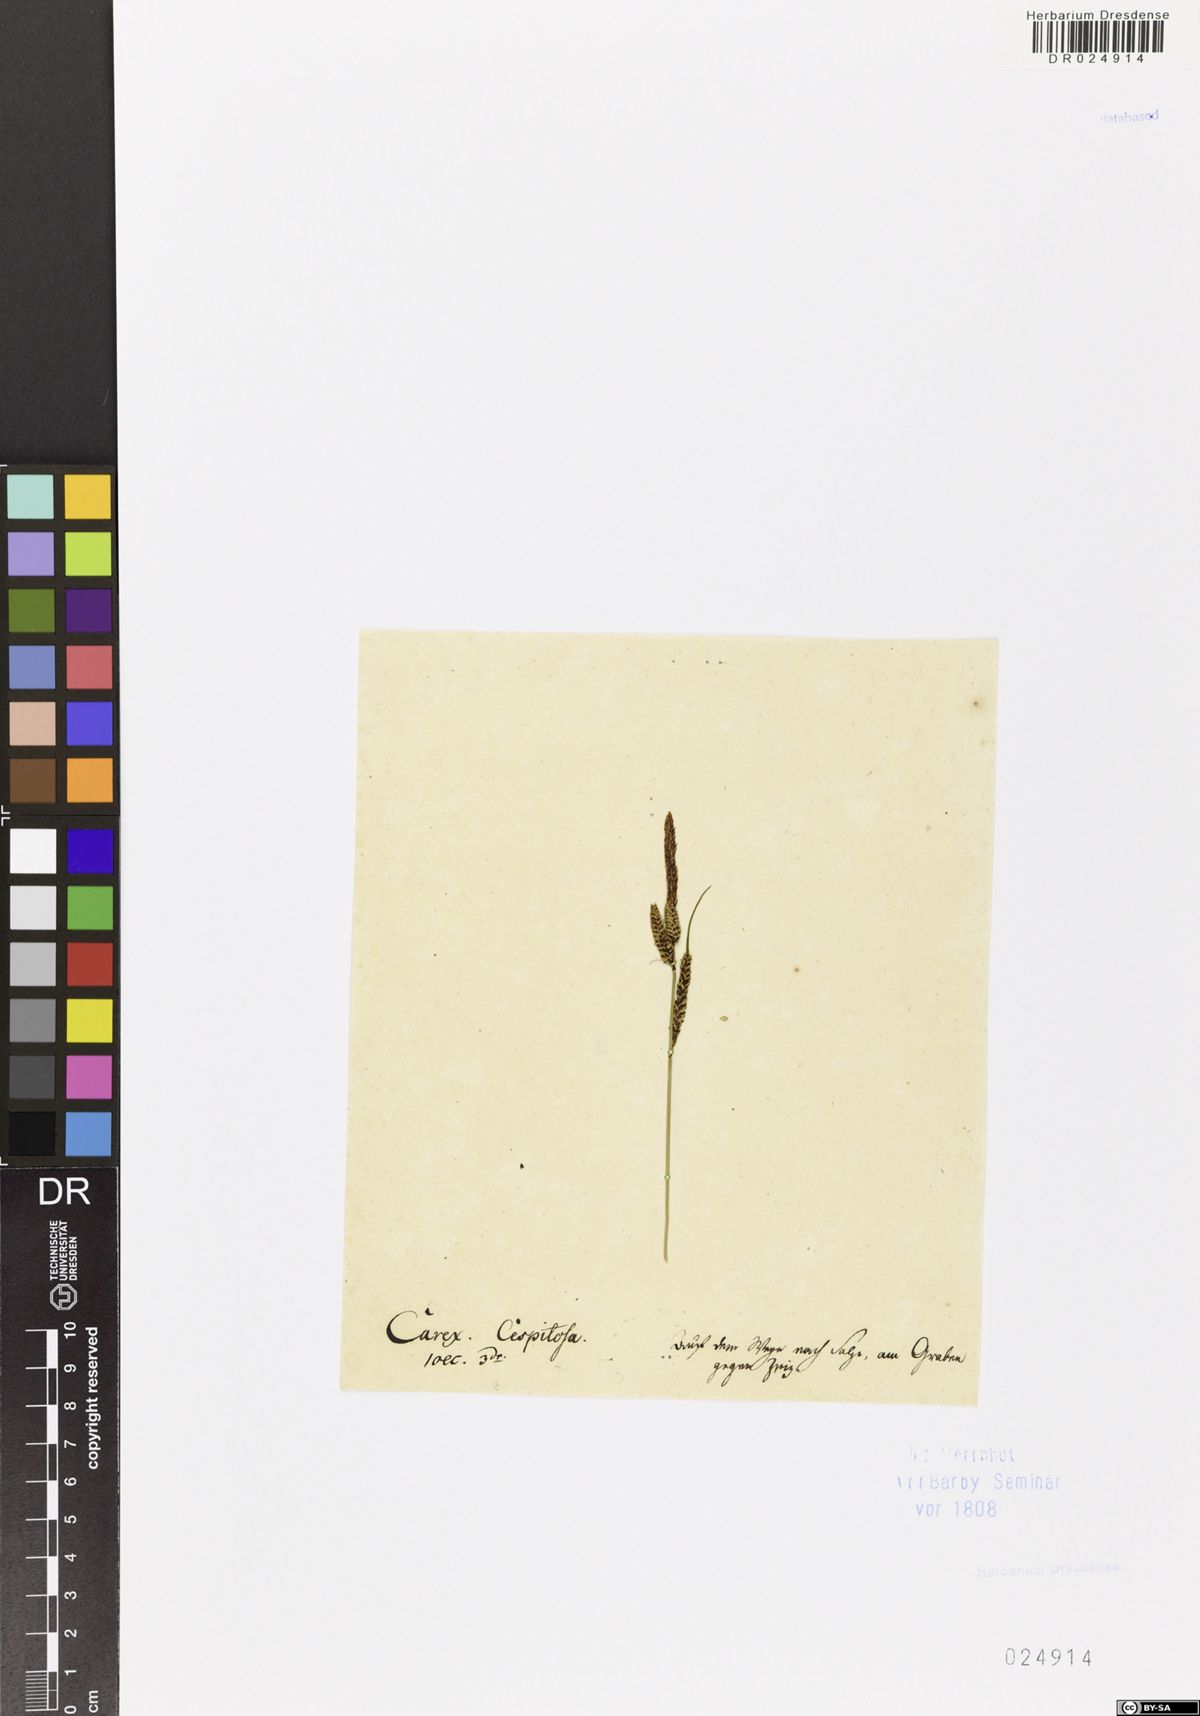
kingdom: Plantae
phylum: Tracheophyta
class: Liliopsida
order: Poales
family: Cyperaceae
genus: Carex
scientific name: Carex nigra
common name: Common sedge
